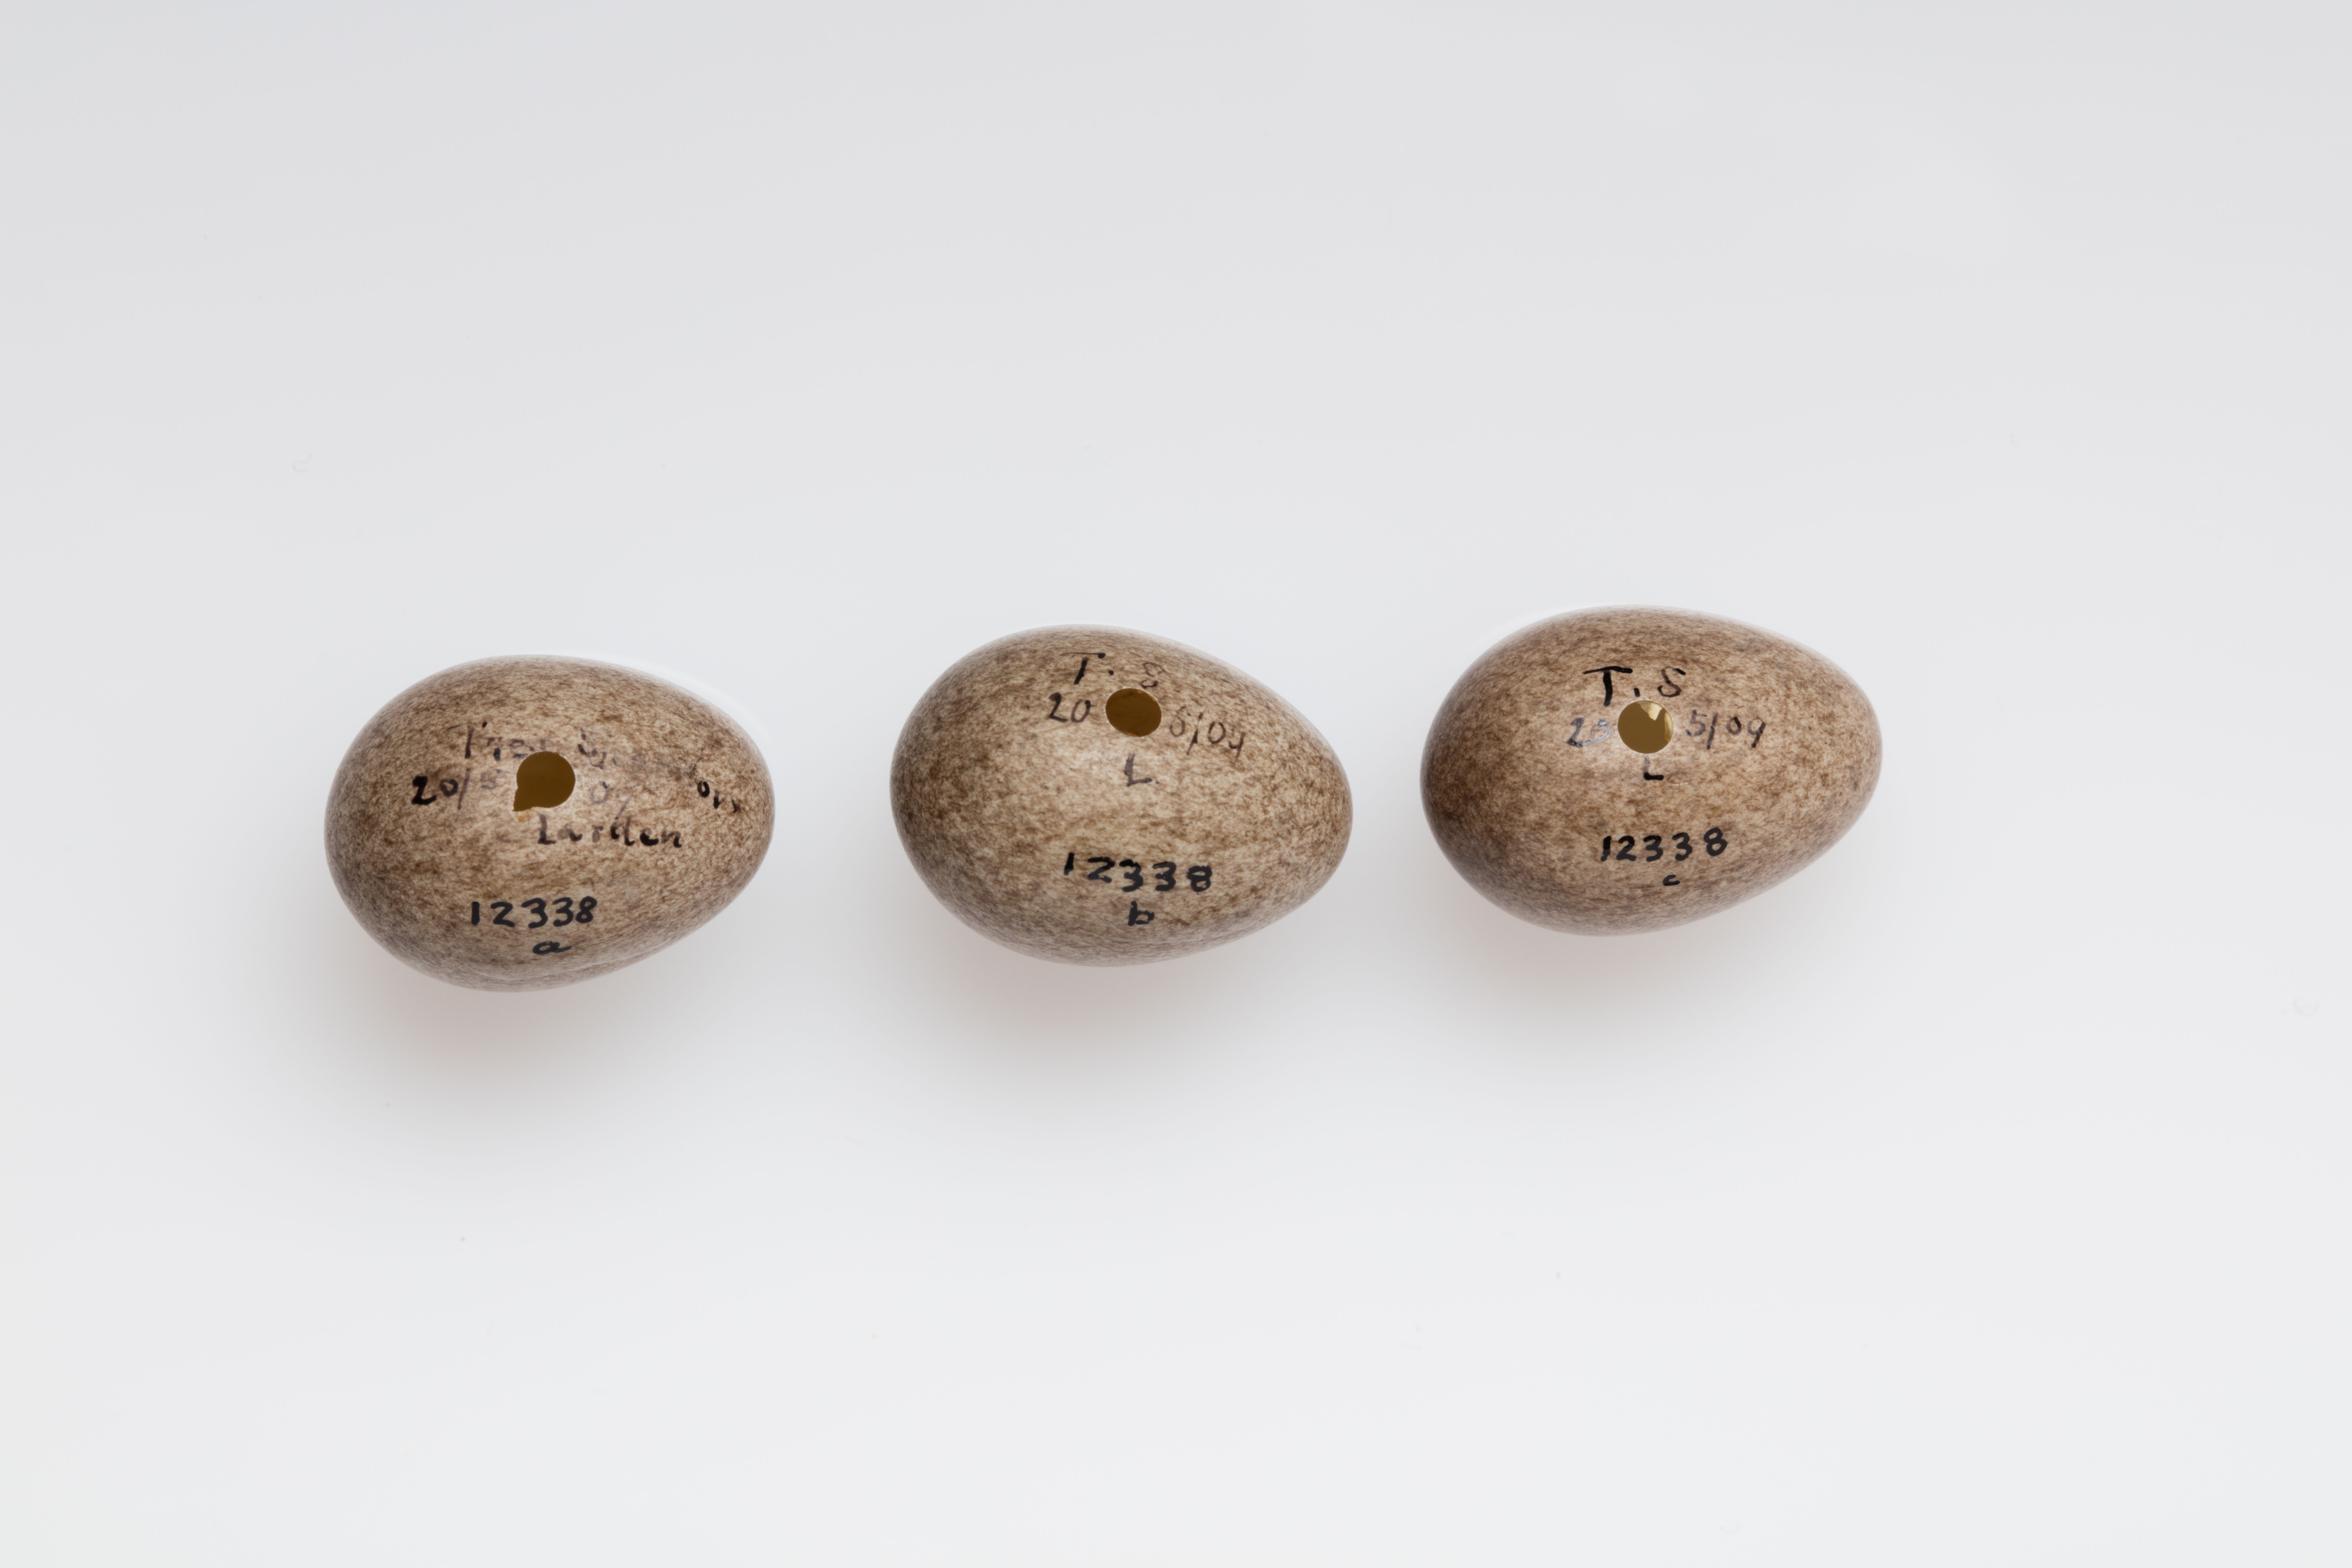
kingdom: Animalia
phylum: Chordata
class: Aves
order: Passeriformes
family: Passeridae
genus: Passer
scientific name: Passer montanus
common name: Eurasian tree sparrow
